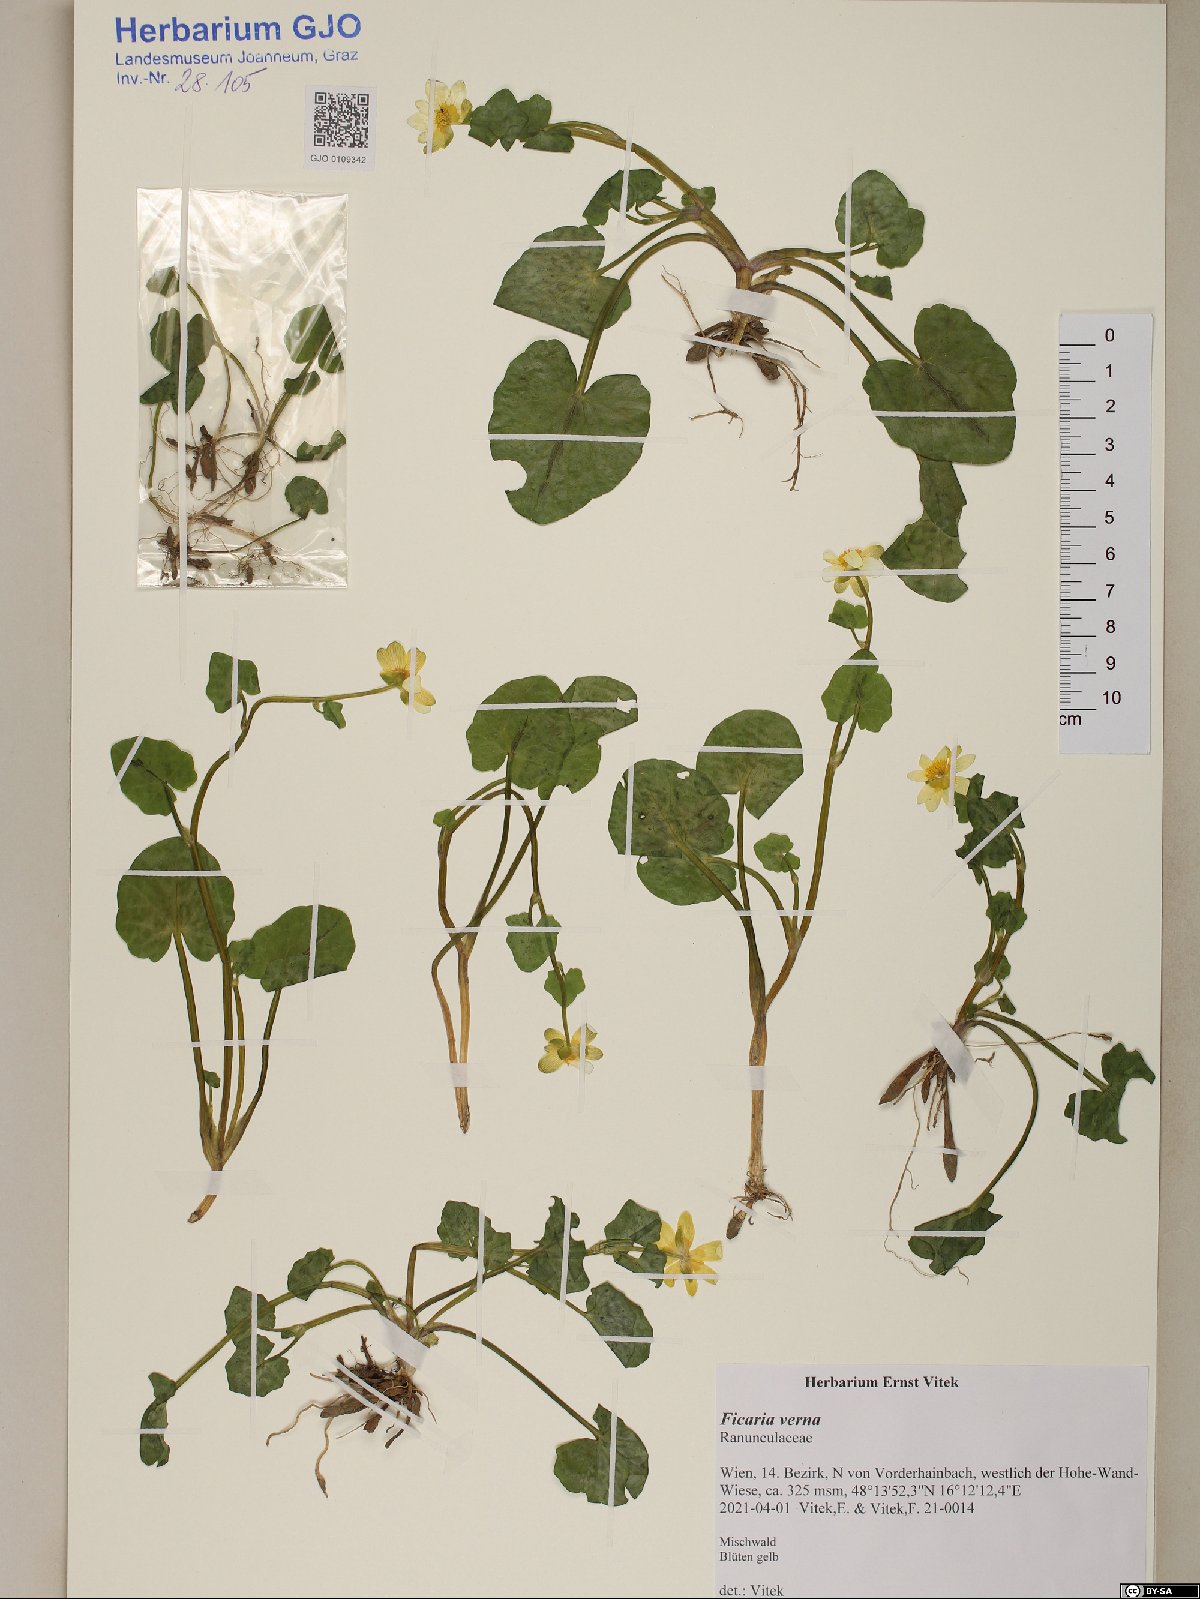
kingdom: Plantae
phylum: Tracheophyta
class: Magnoliopsida
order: Ranunculales
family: Ranunculaceae
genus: Ficaria
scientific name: Ficaria verna
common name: Lesser celandine
